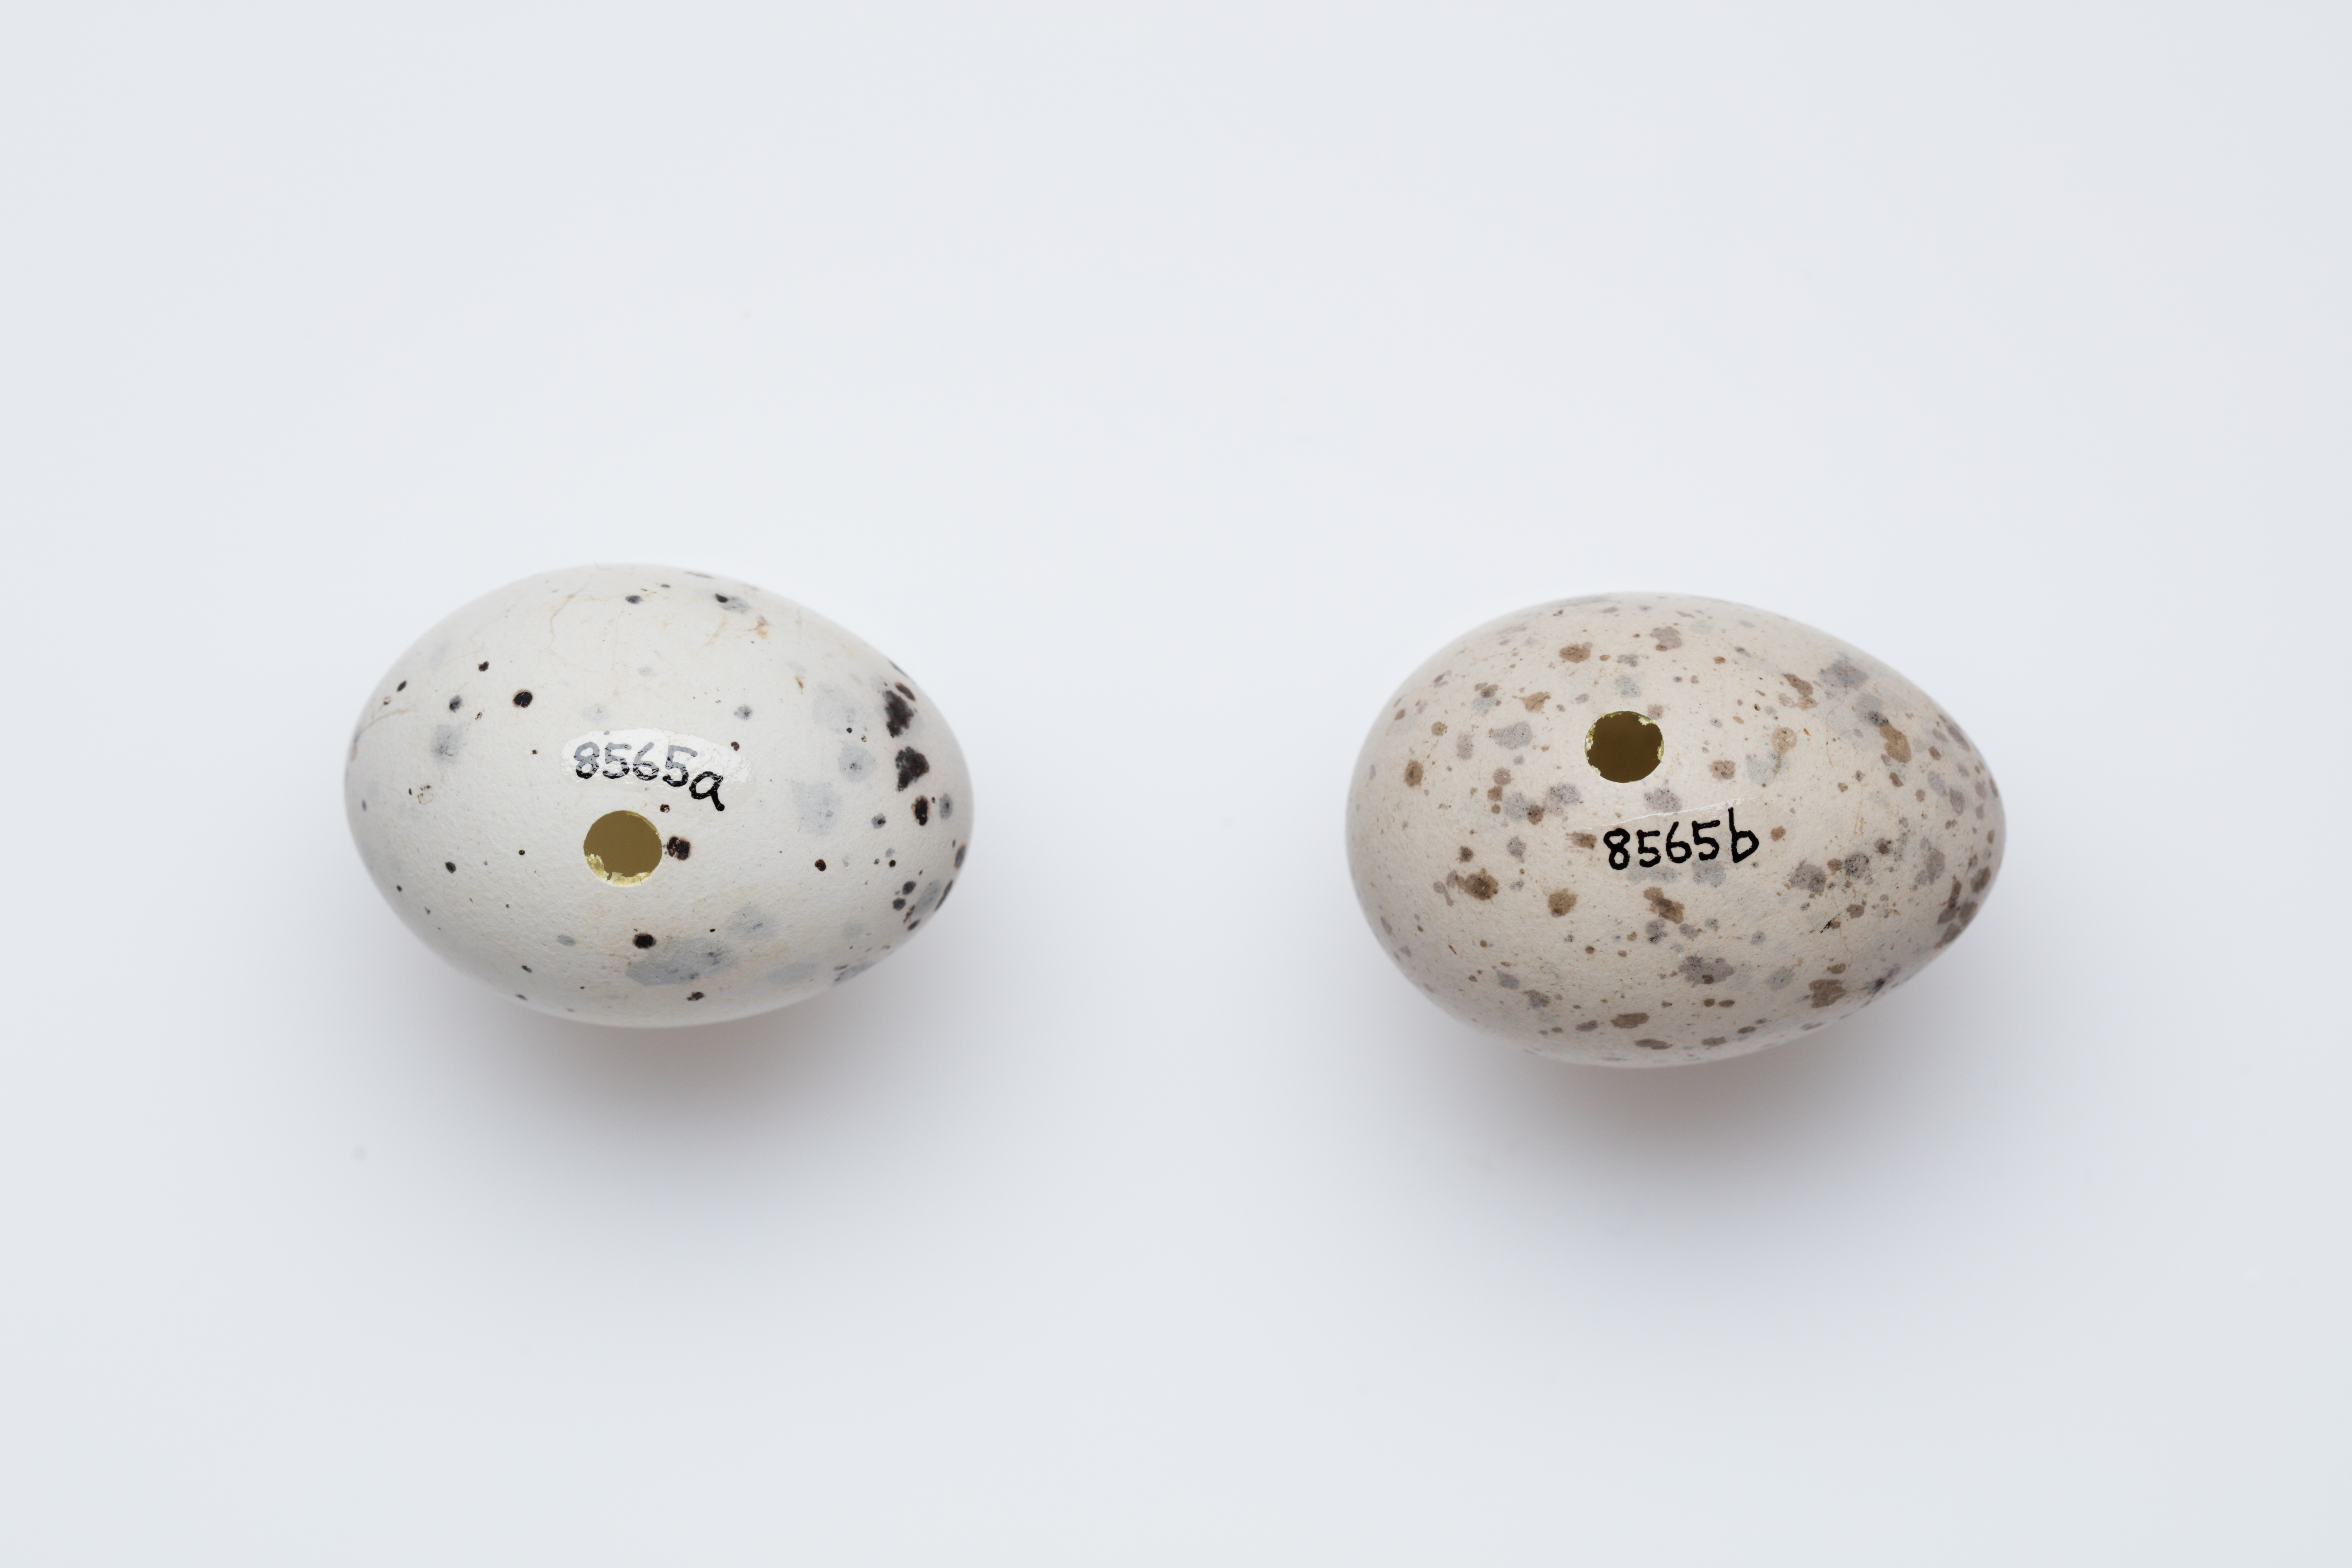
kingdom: Animalia
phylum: Chordata
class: Aves
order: Passeriformes
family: Callaeatidae
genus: Callaeas
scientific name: Callaeas cinereus
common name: South island kokako
